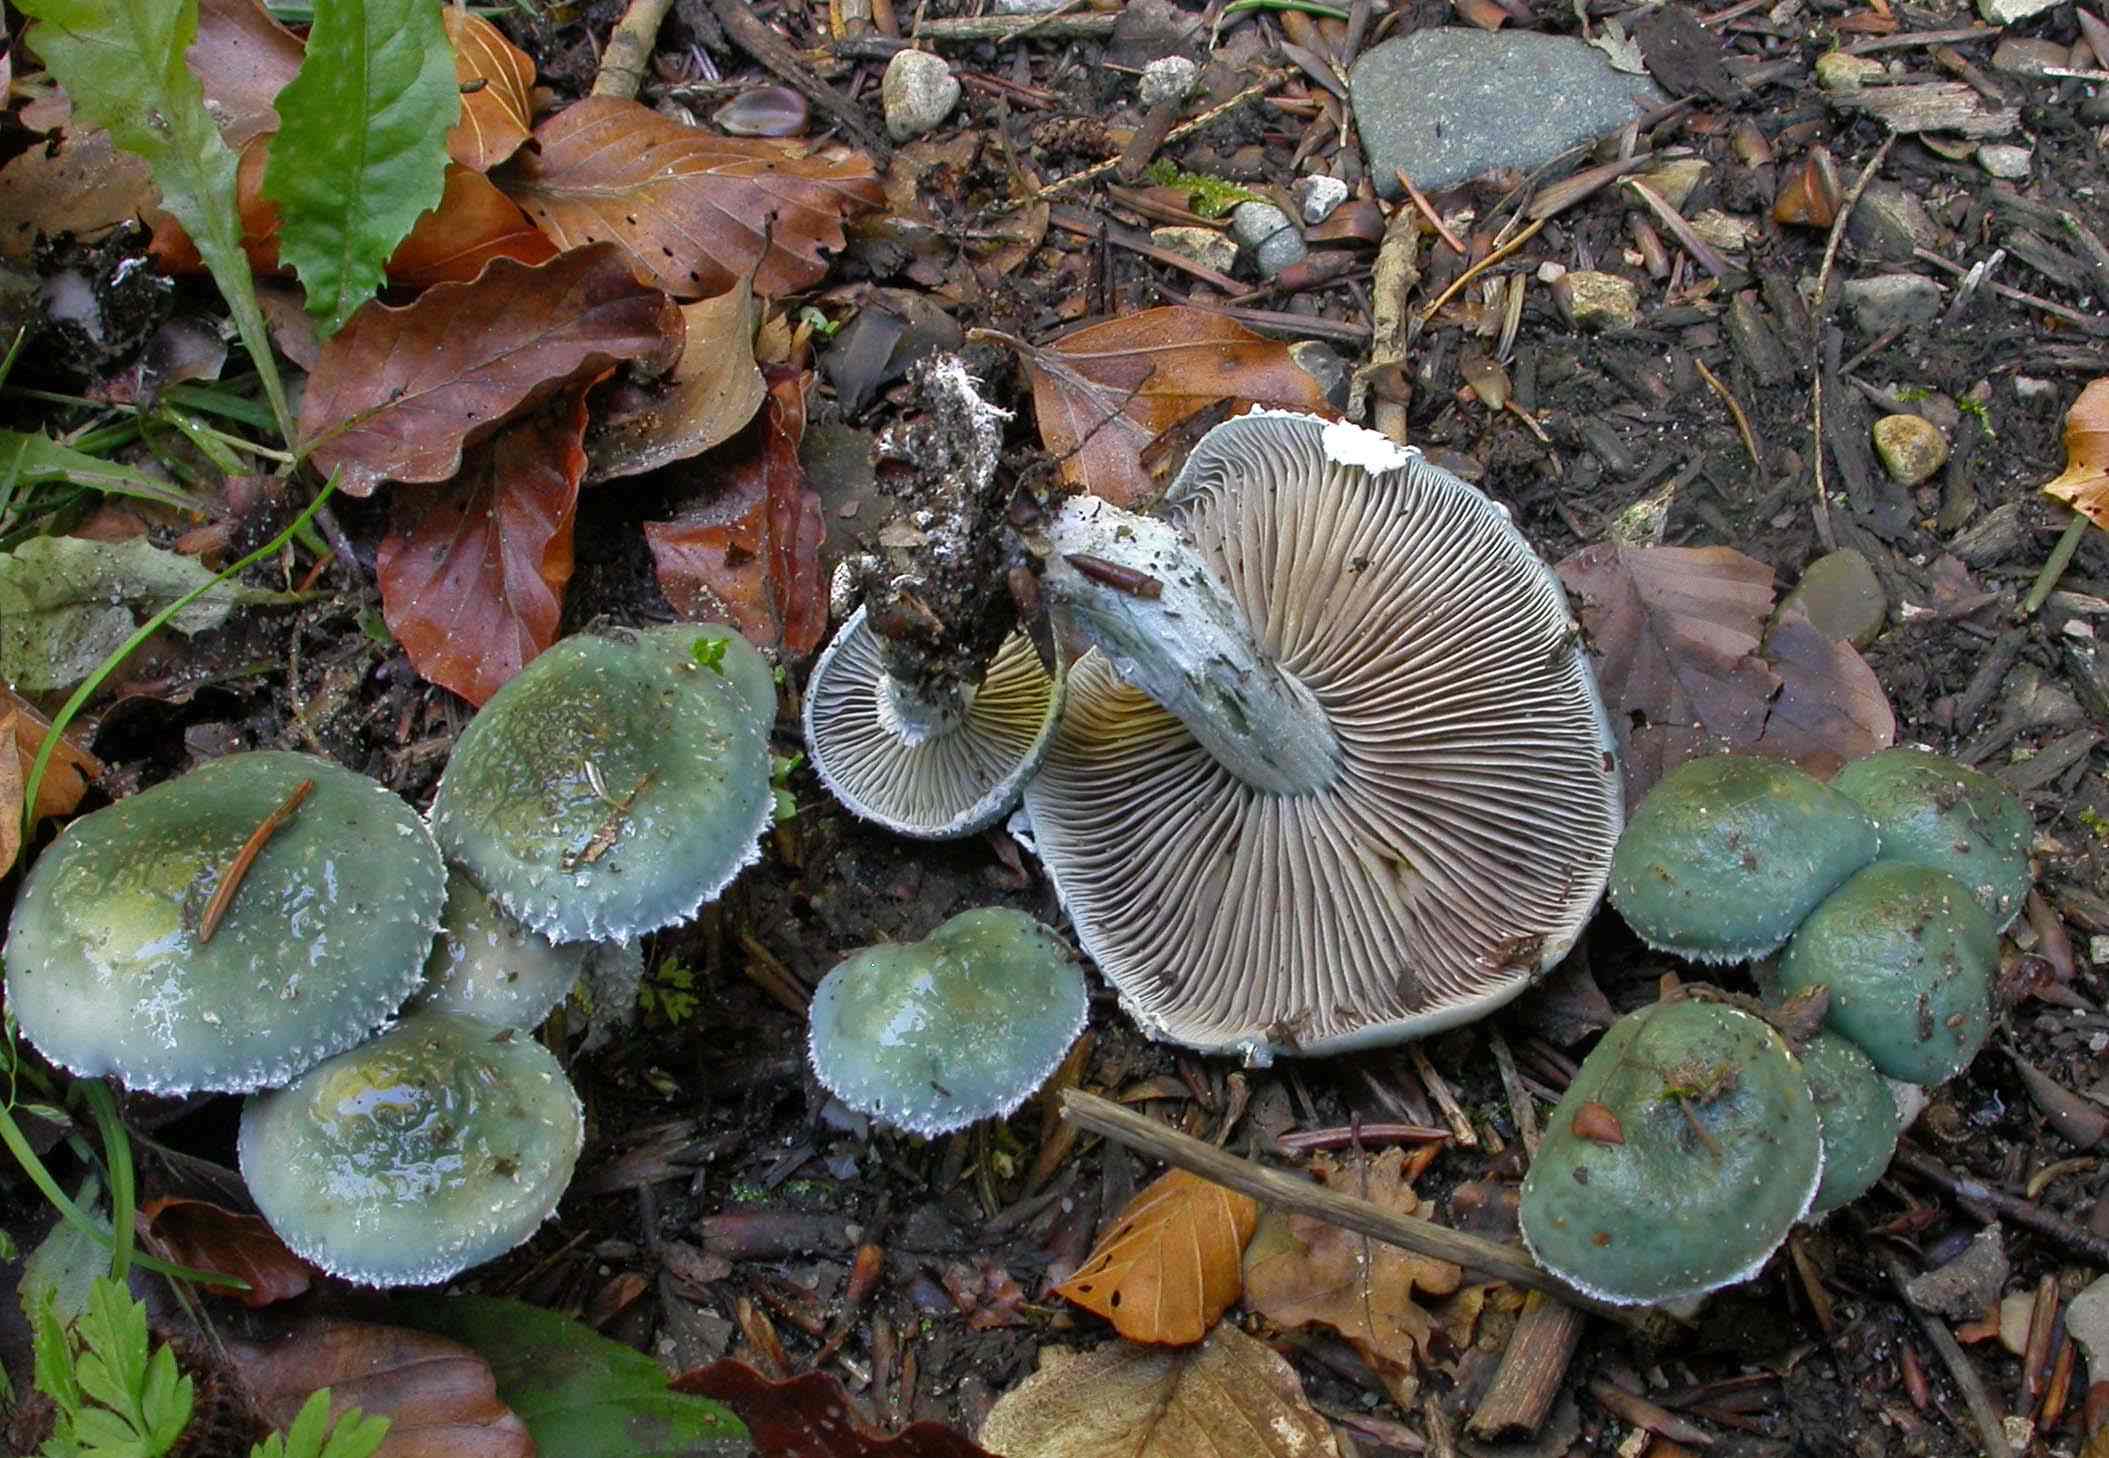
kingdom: Fungi
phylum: Basidiomycota
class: Agaricomycetes
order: Agaricales
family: Strophariaceae
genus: Stropharia
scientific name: Stropharia cyanea
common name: blågrøn bredblad
